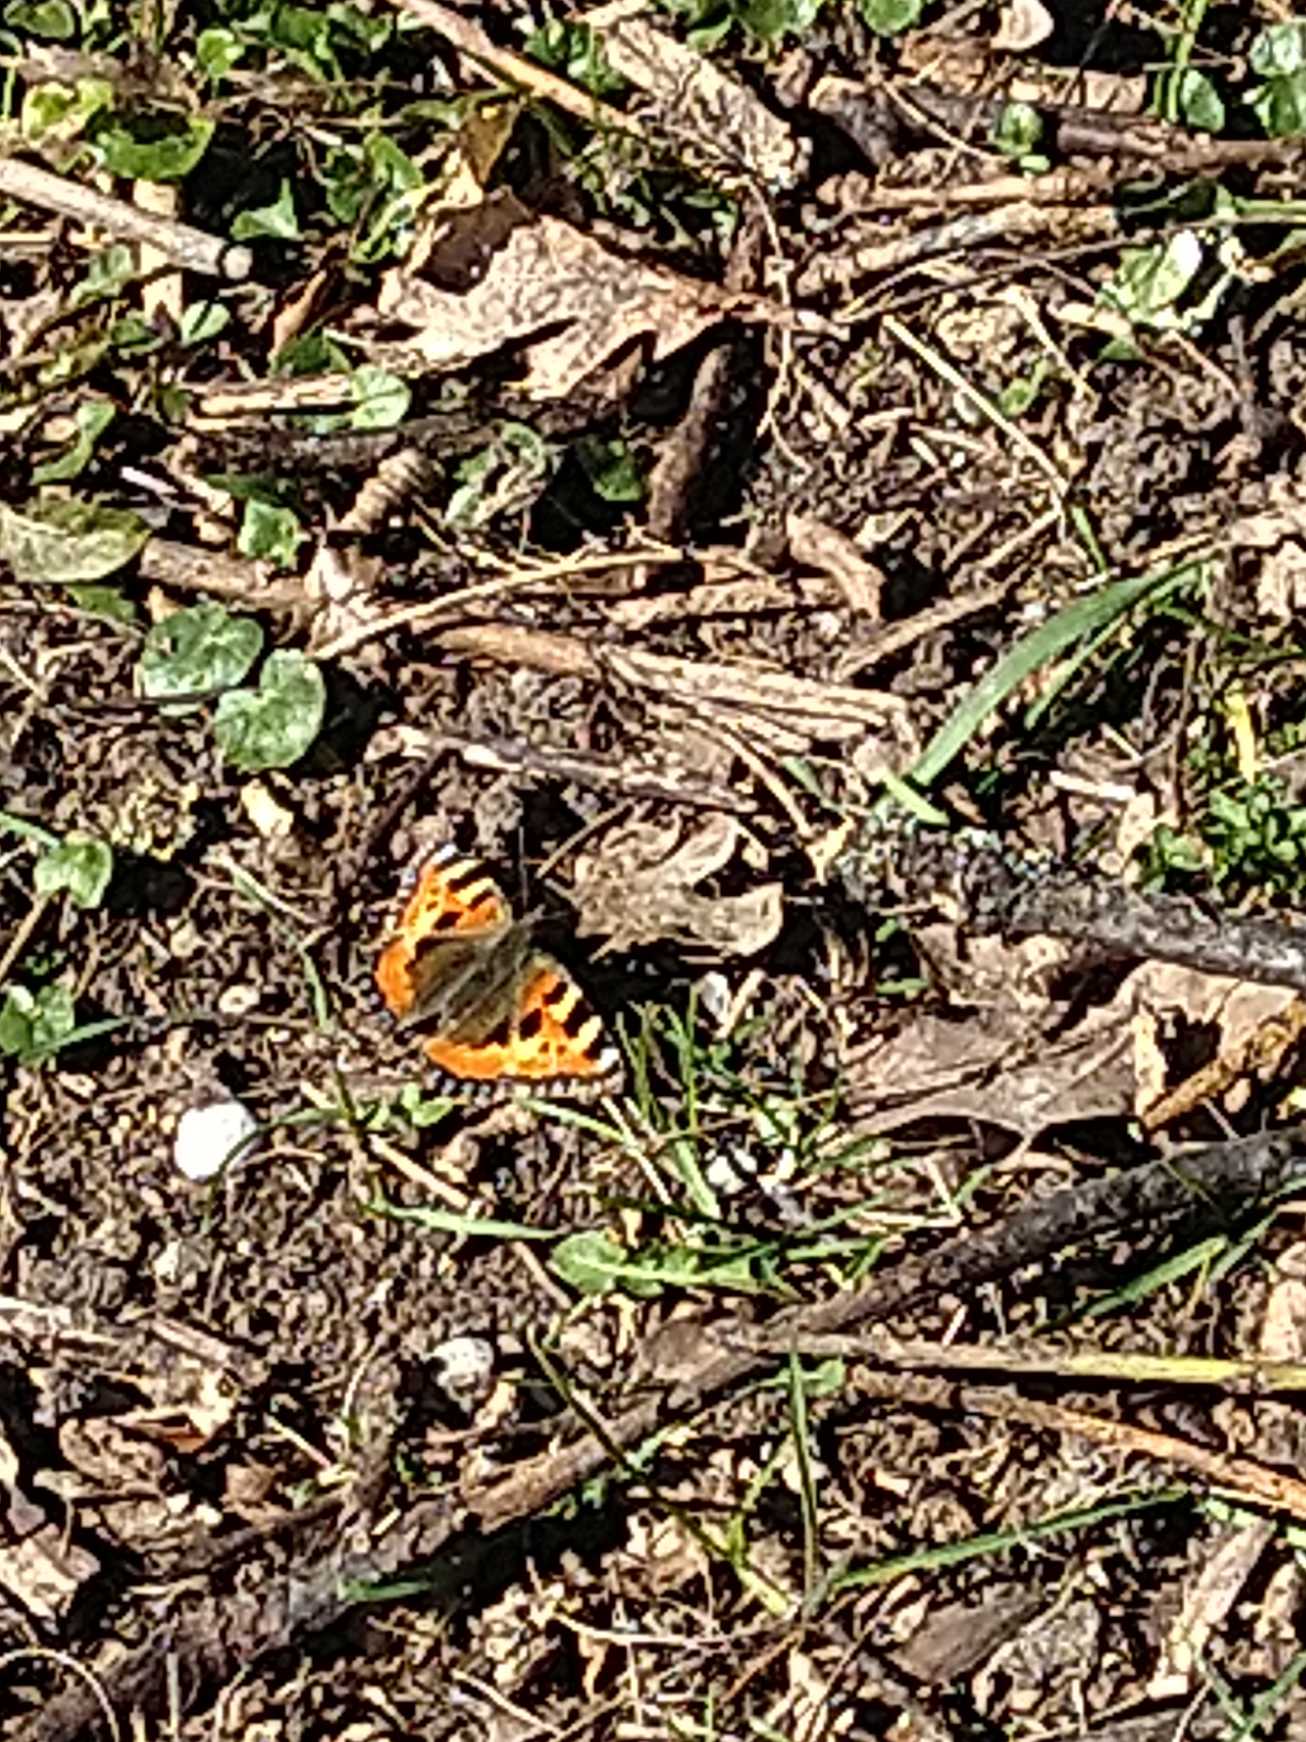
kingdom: Animalia
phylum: Arthropoda
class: Insecta
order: Lepidoptera
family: Nymphalidae
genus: Aglais
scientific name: Aglais urticae
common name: Nældens takvinge
